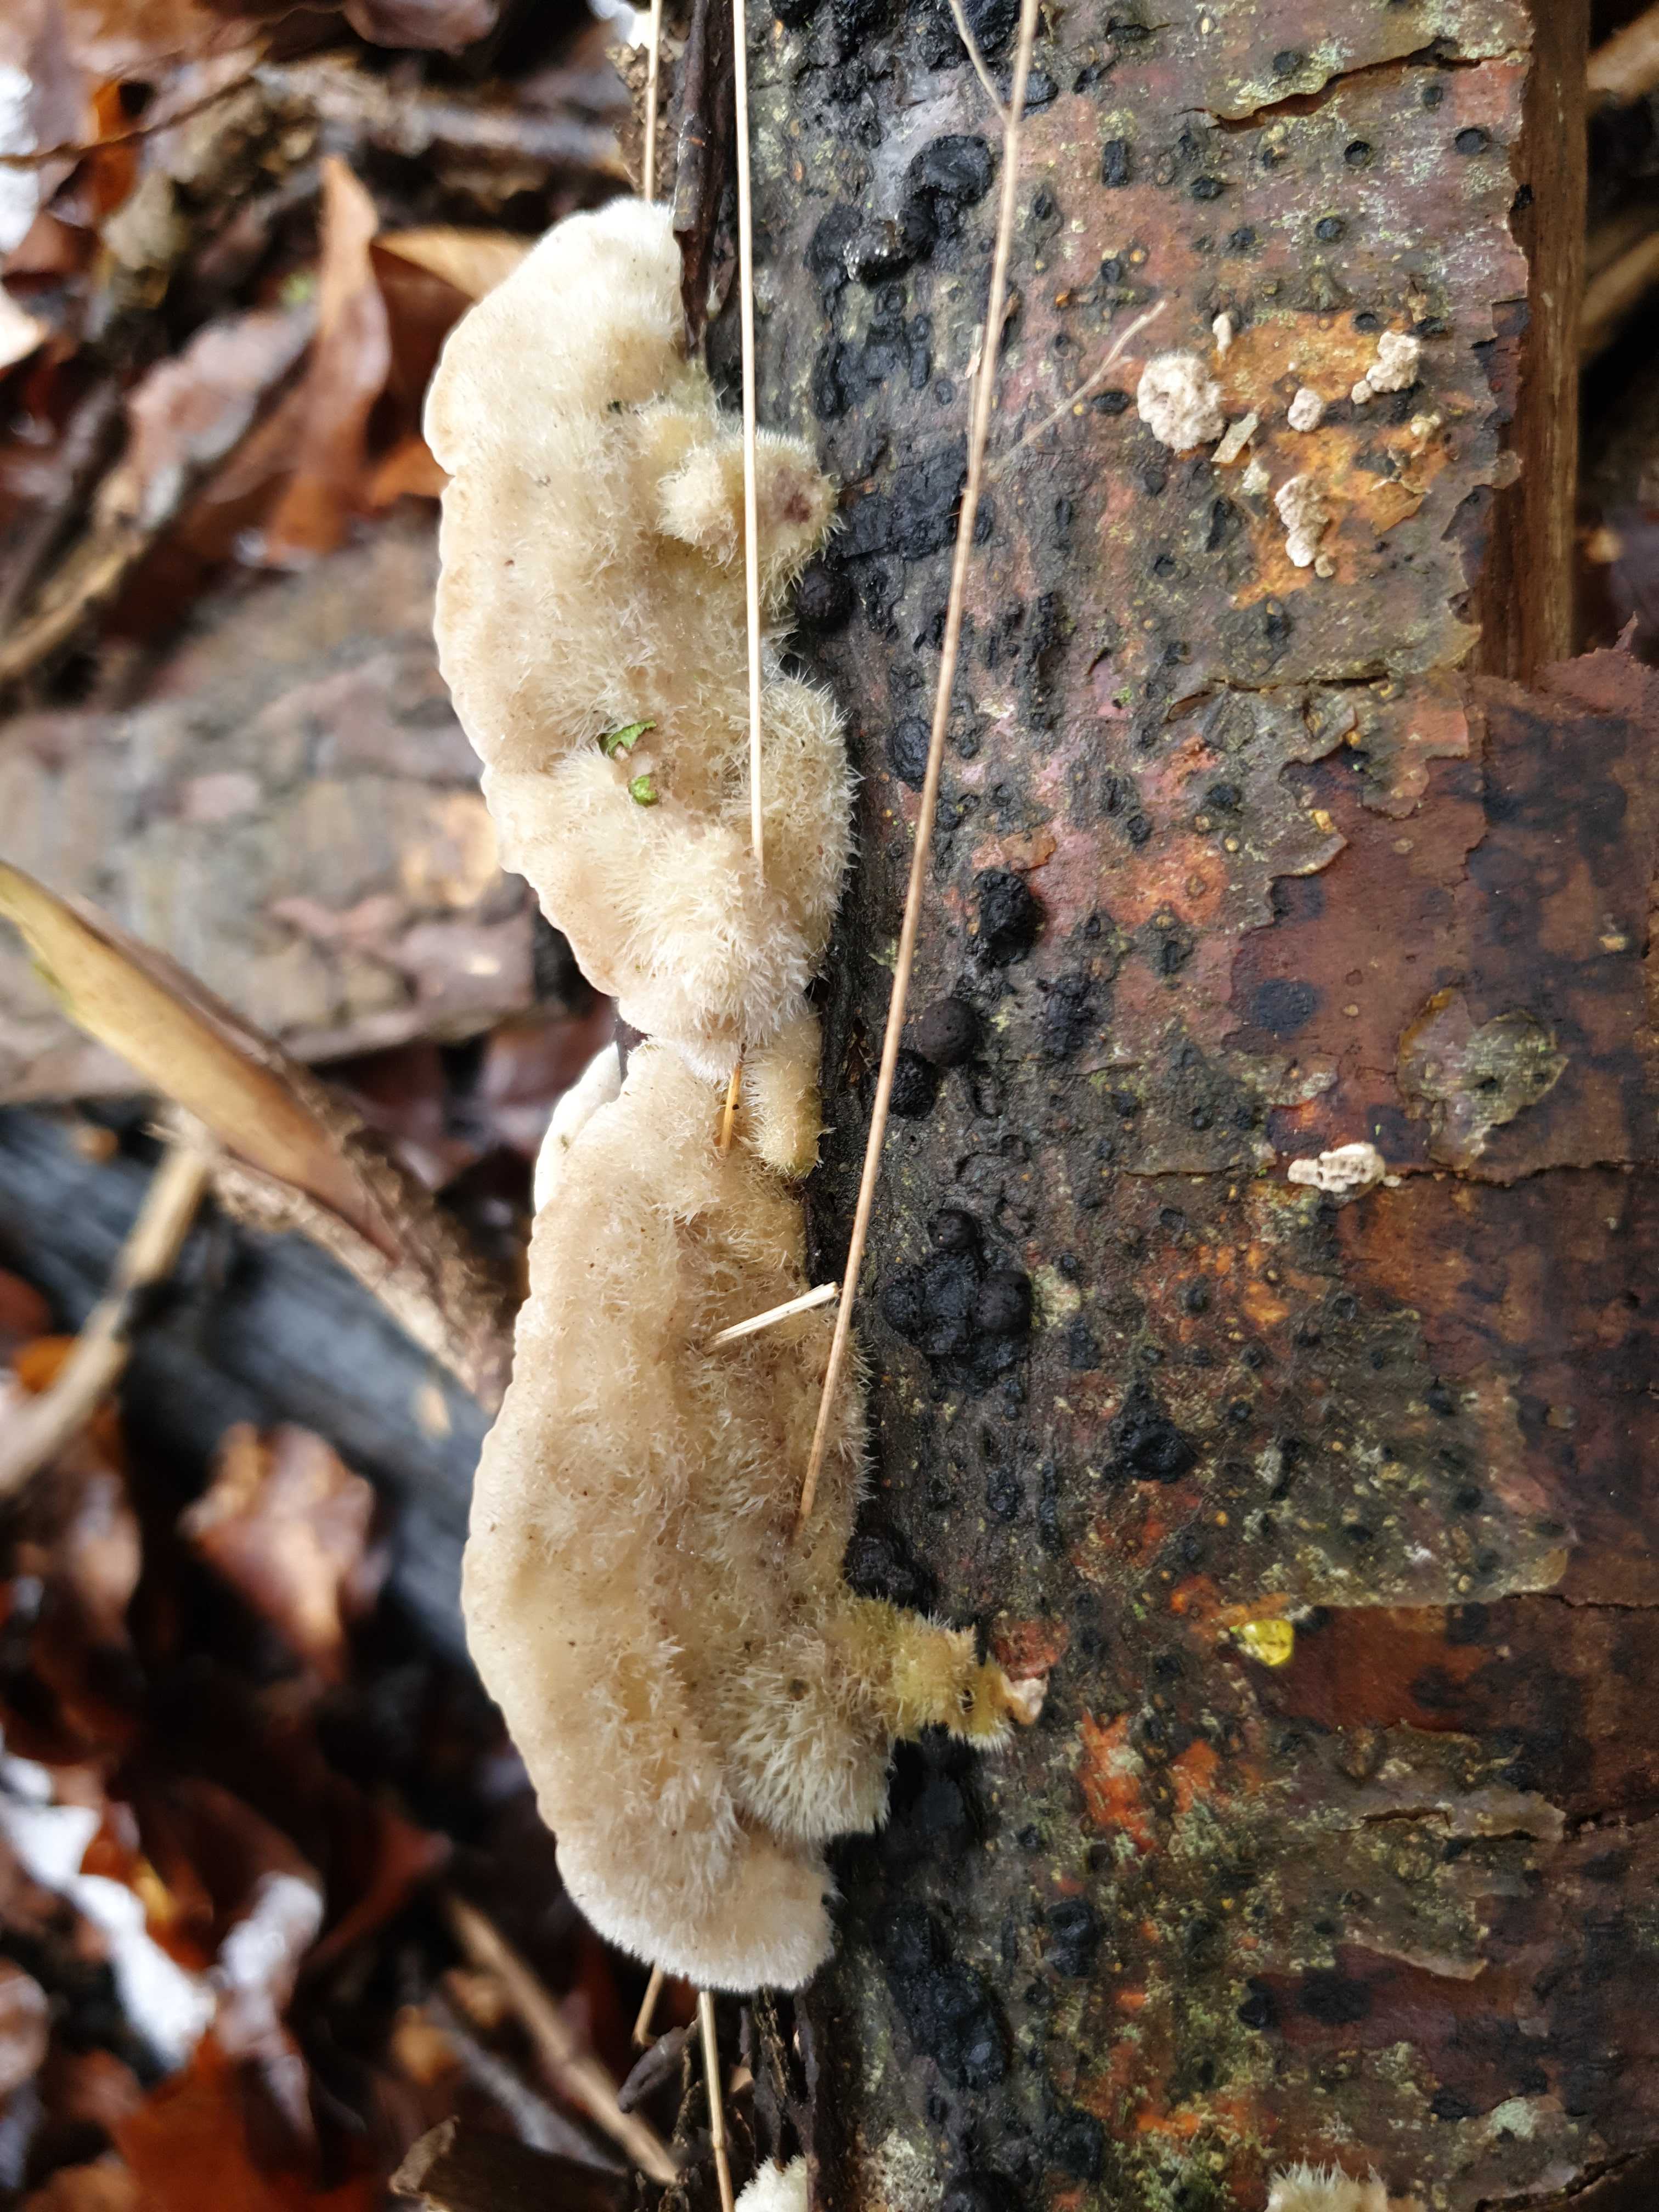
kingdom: Fungi
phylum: Basidiomycota
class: Agaricomycetes
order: Polyporales
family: Polyporaceae
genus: Trametes
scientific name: Trametes hirsuta
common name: håret læderporesvamp
